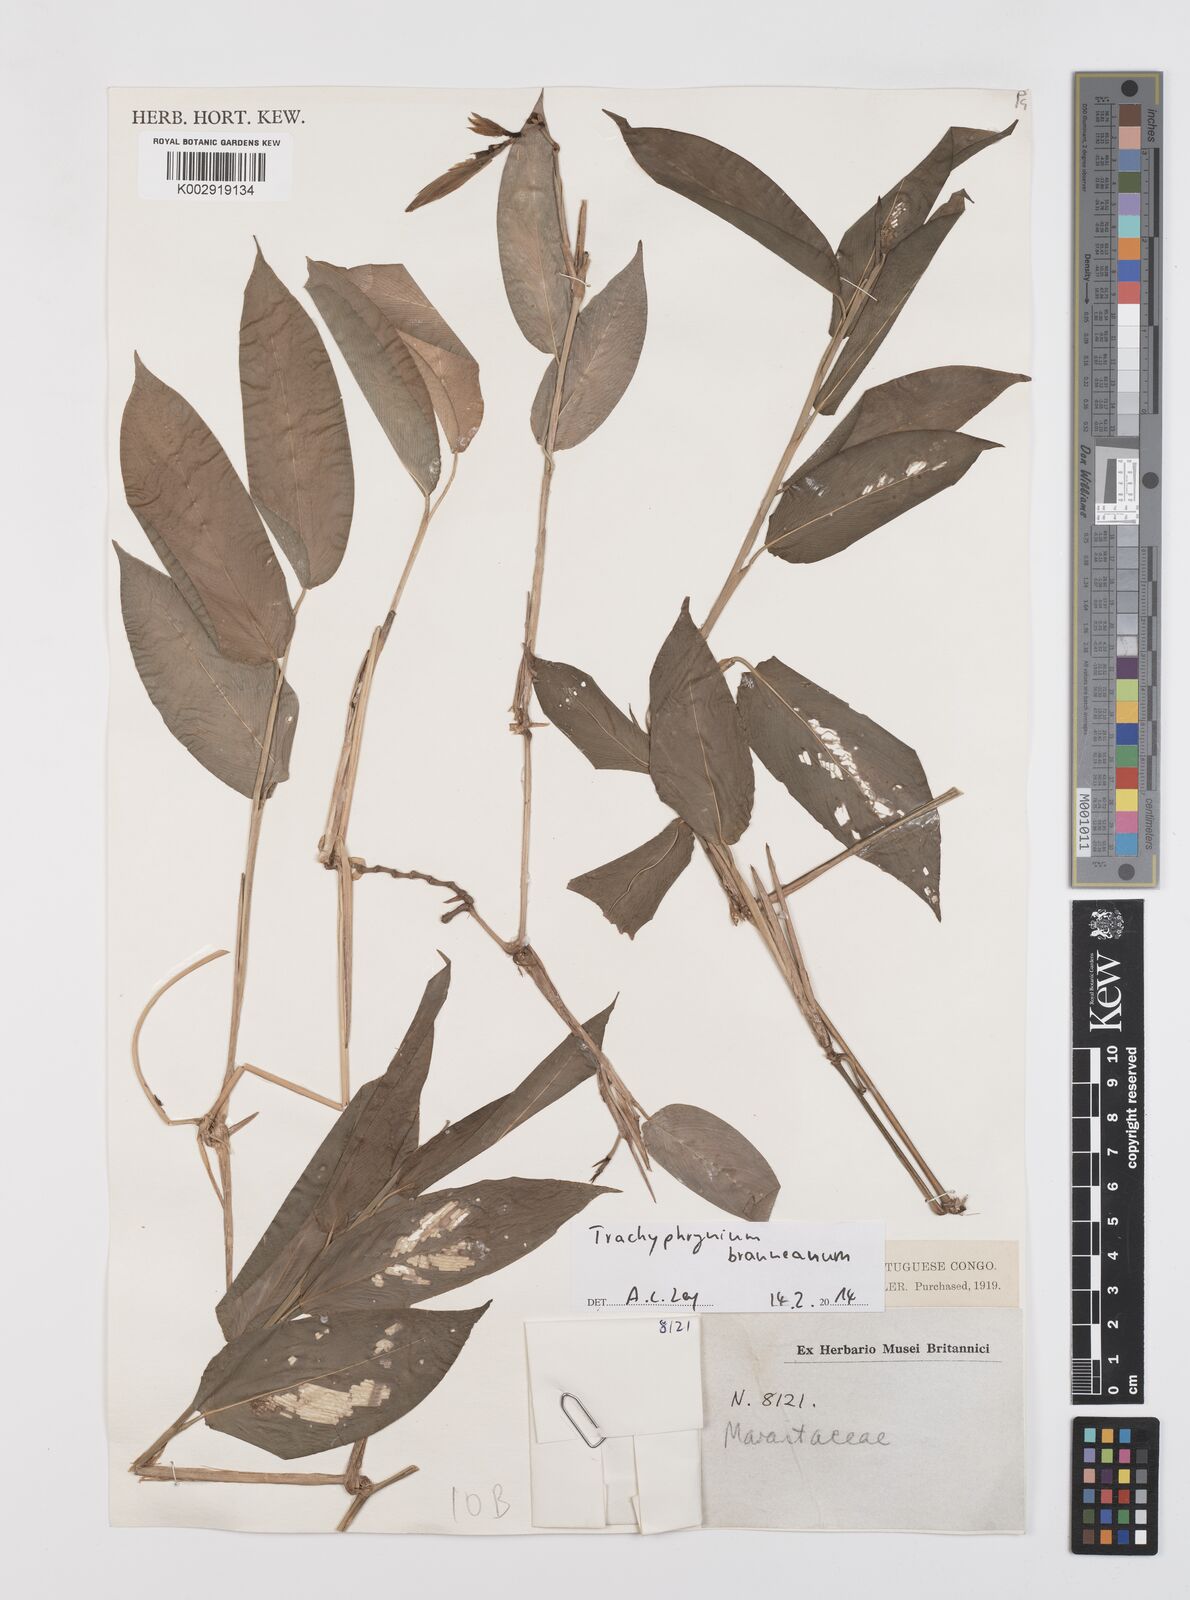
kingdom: Plantae
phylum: Tracheophyta
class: Liliopsida
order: Zingiberales
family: Marantaceae
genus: Trachyphrynium
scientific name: Trachyphrynium braunianum
